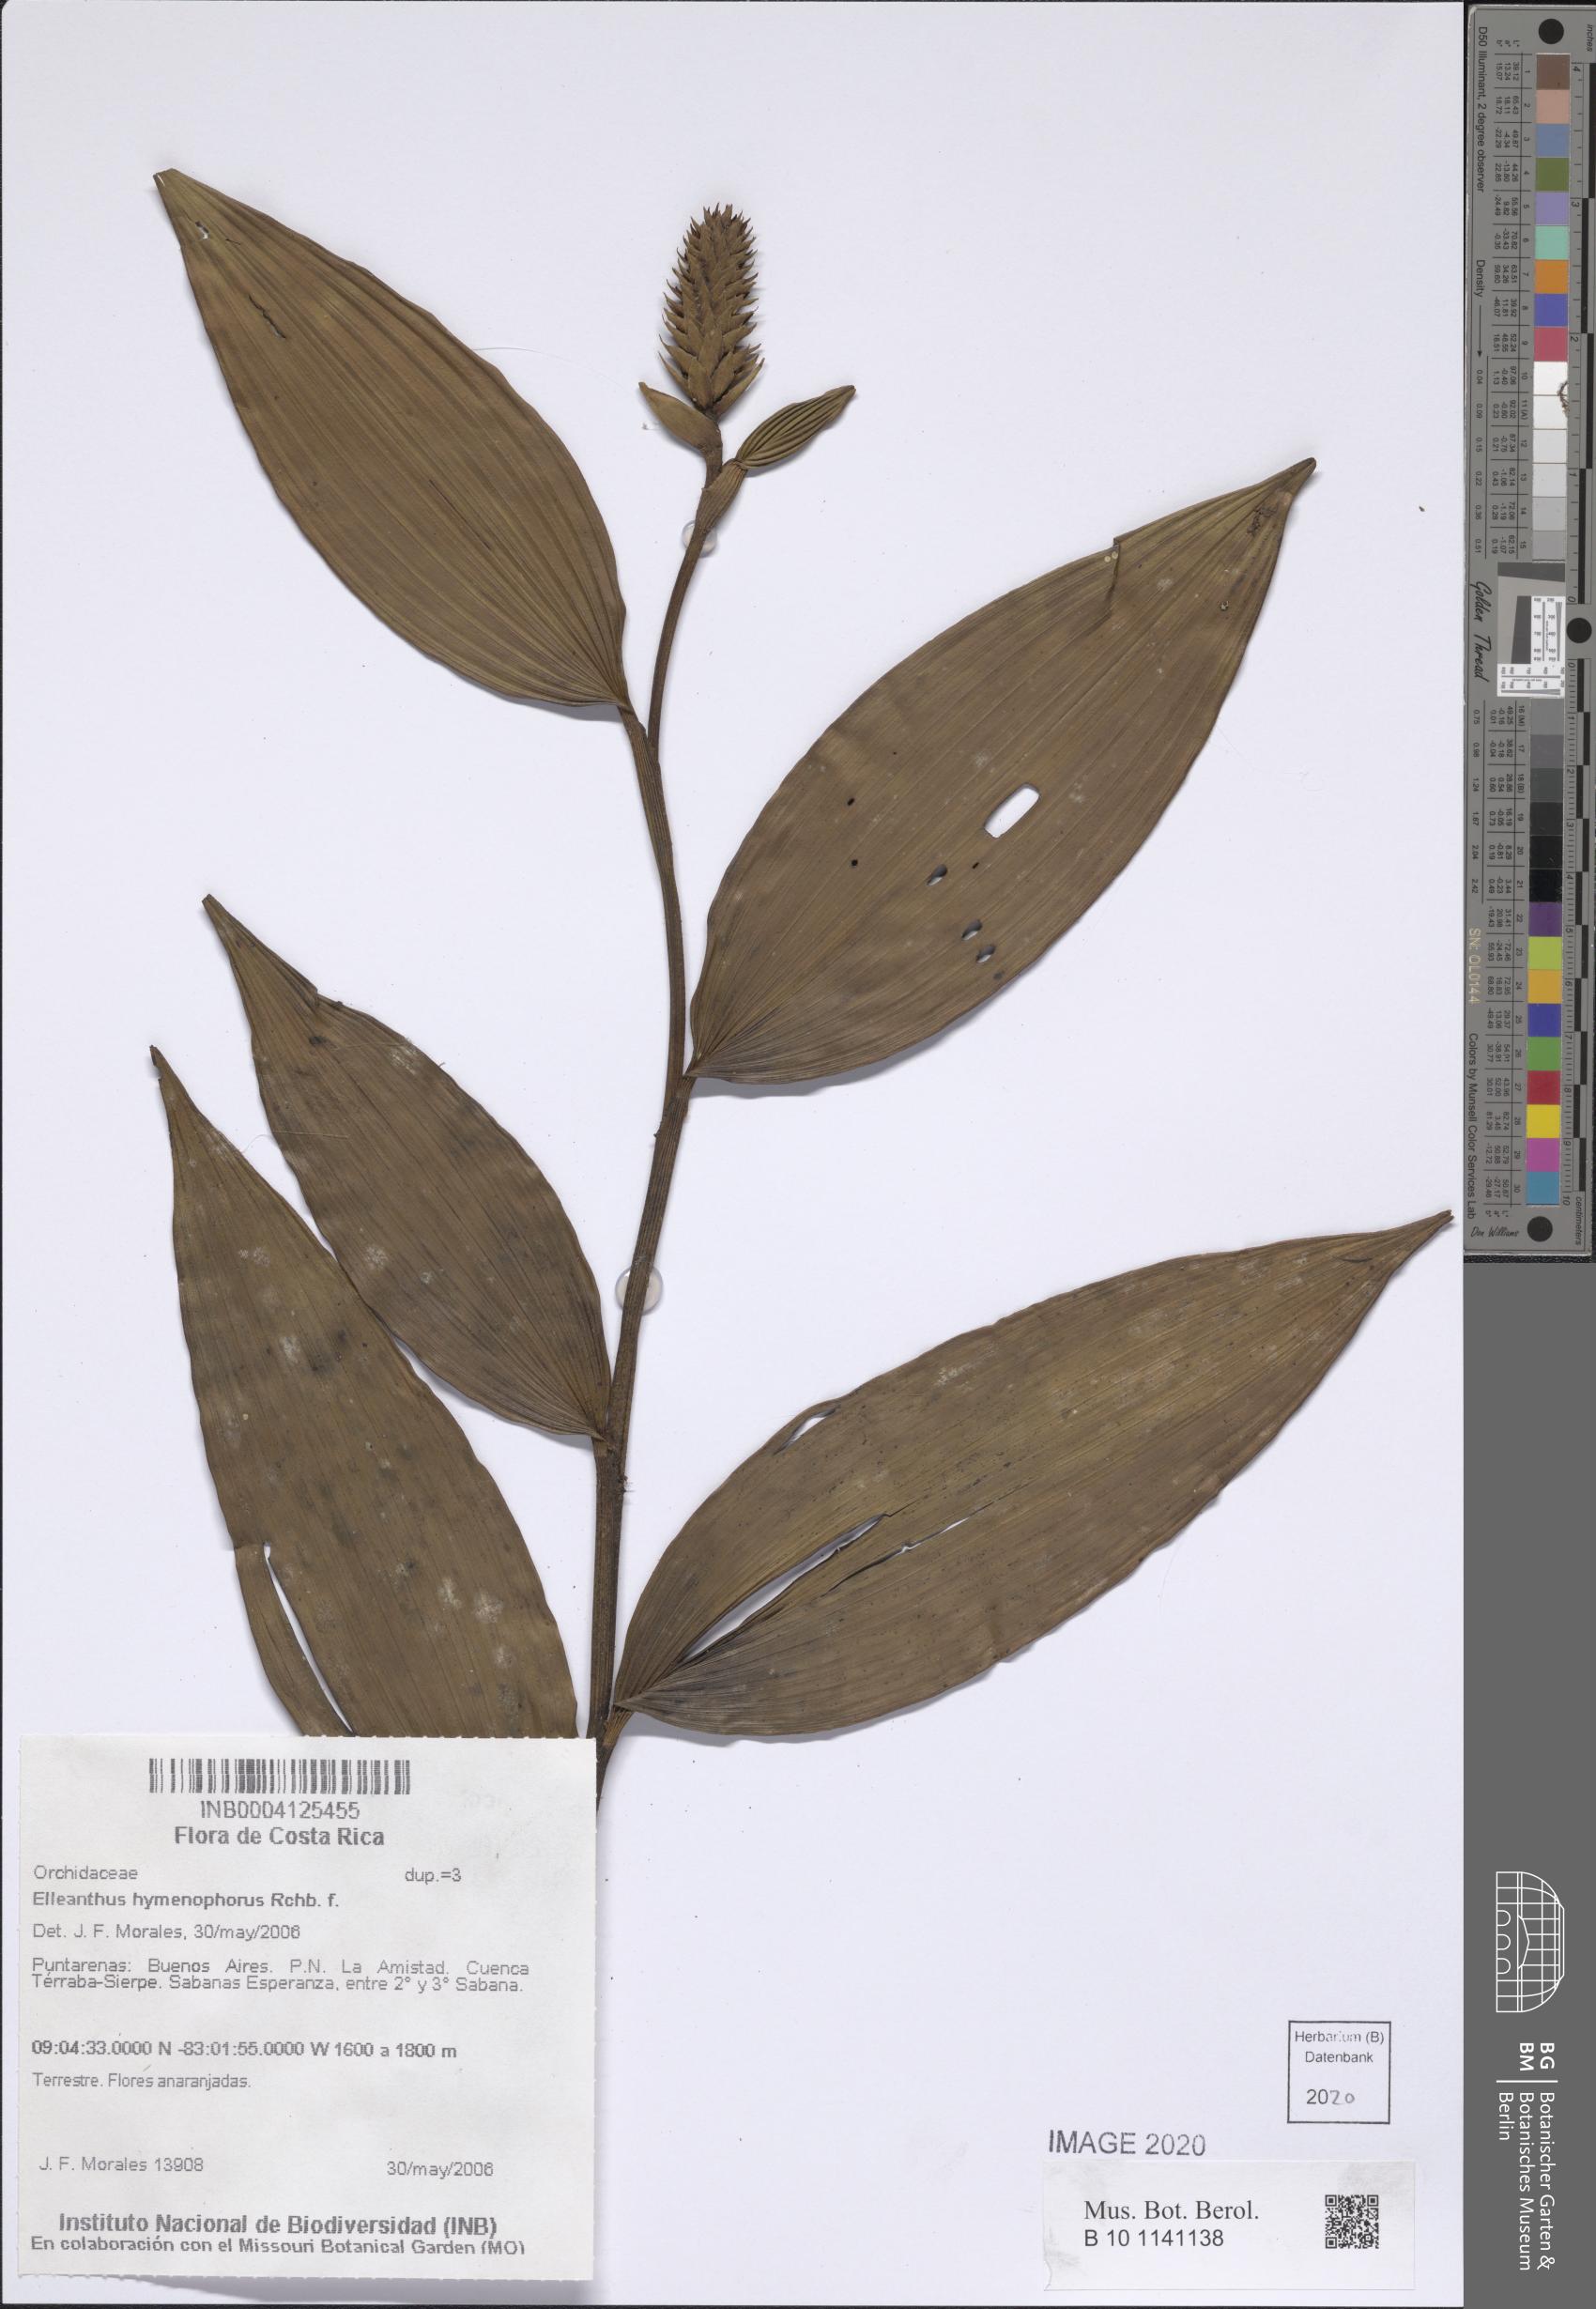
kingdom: Plantae
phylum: Tracheophyta
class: Liliopsida
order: Asparagales
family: Orchidaceae
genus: Elleanthus
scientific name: Elleanthus hymenophorus
